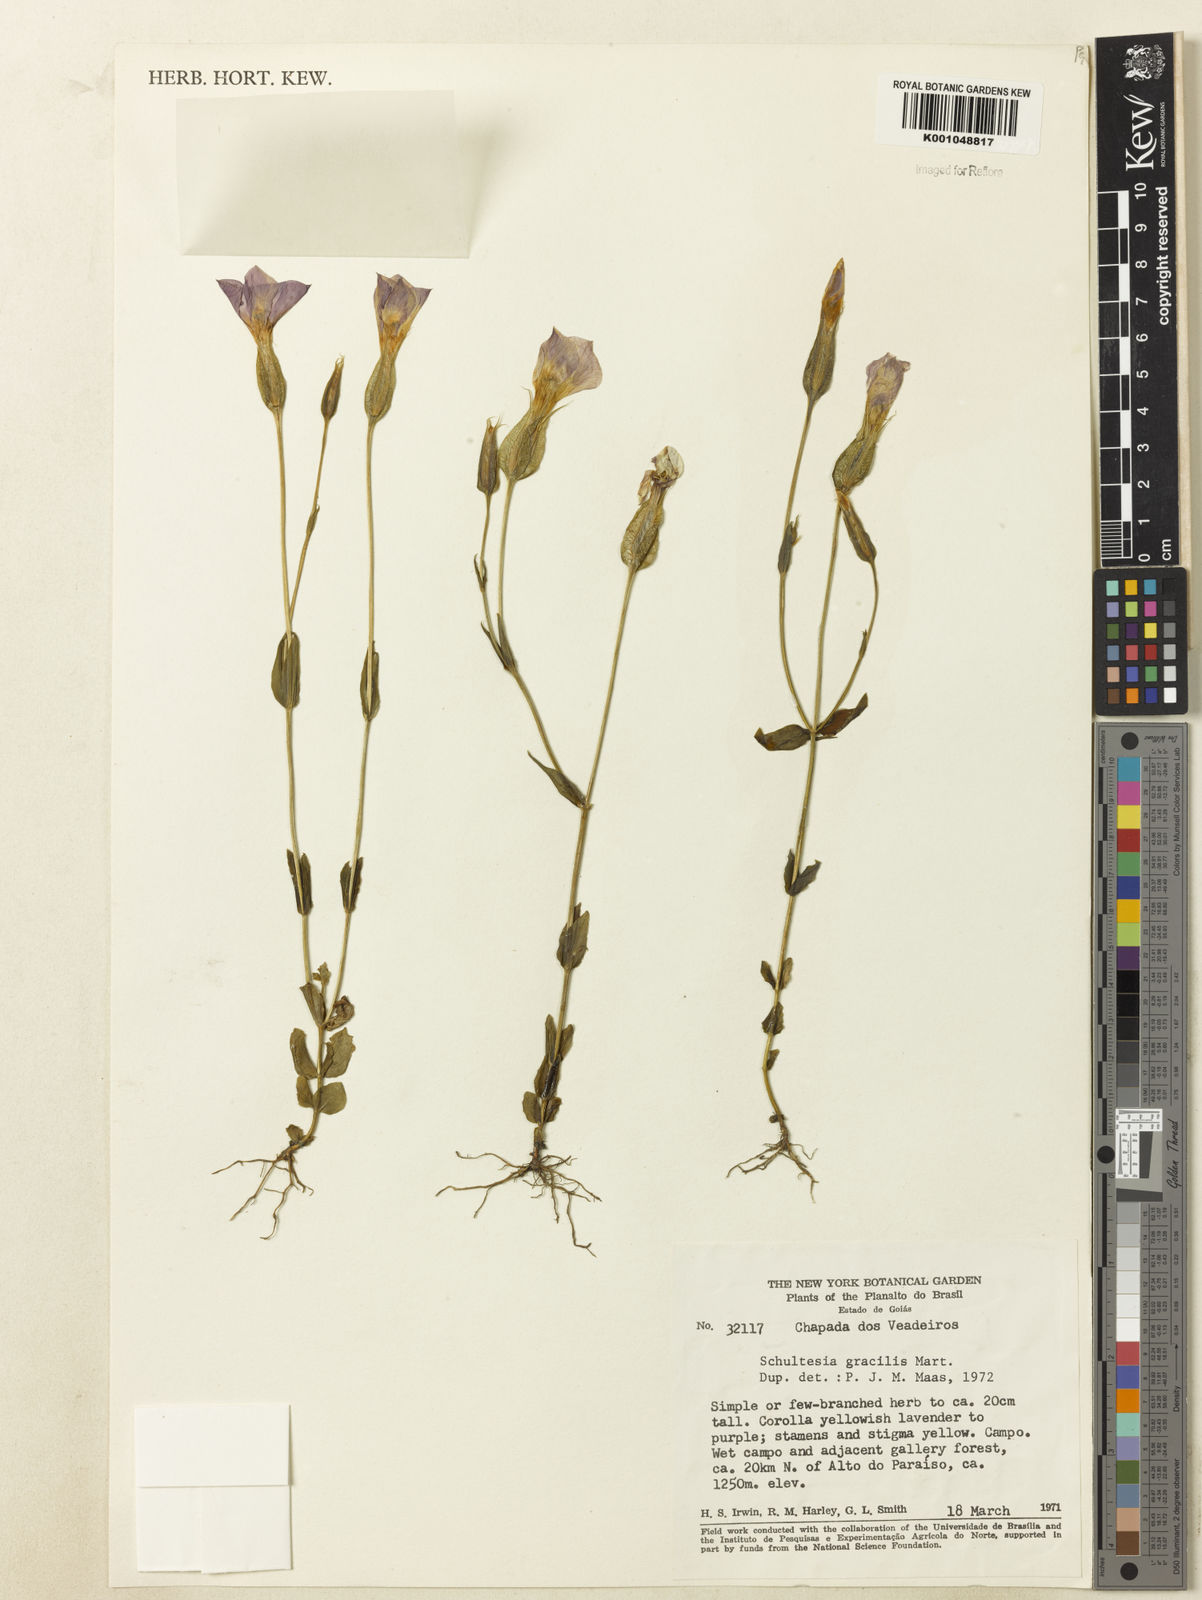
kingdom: Plantae
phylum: Tracheophyta
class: Magnoliopsida
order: Gentianales
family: Gentianaceae
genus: Schultesia
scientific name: Schultesia gracilis
